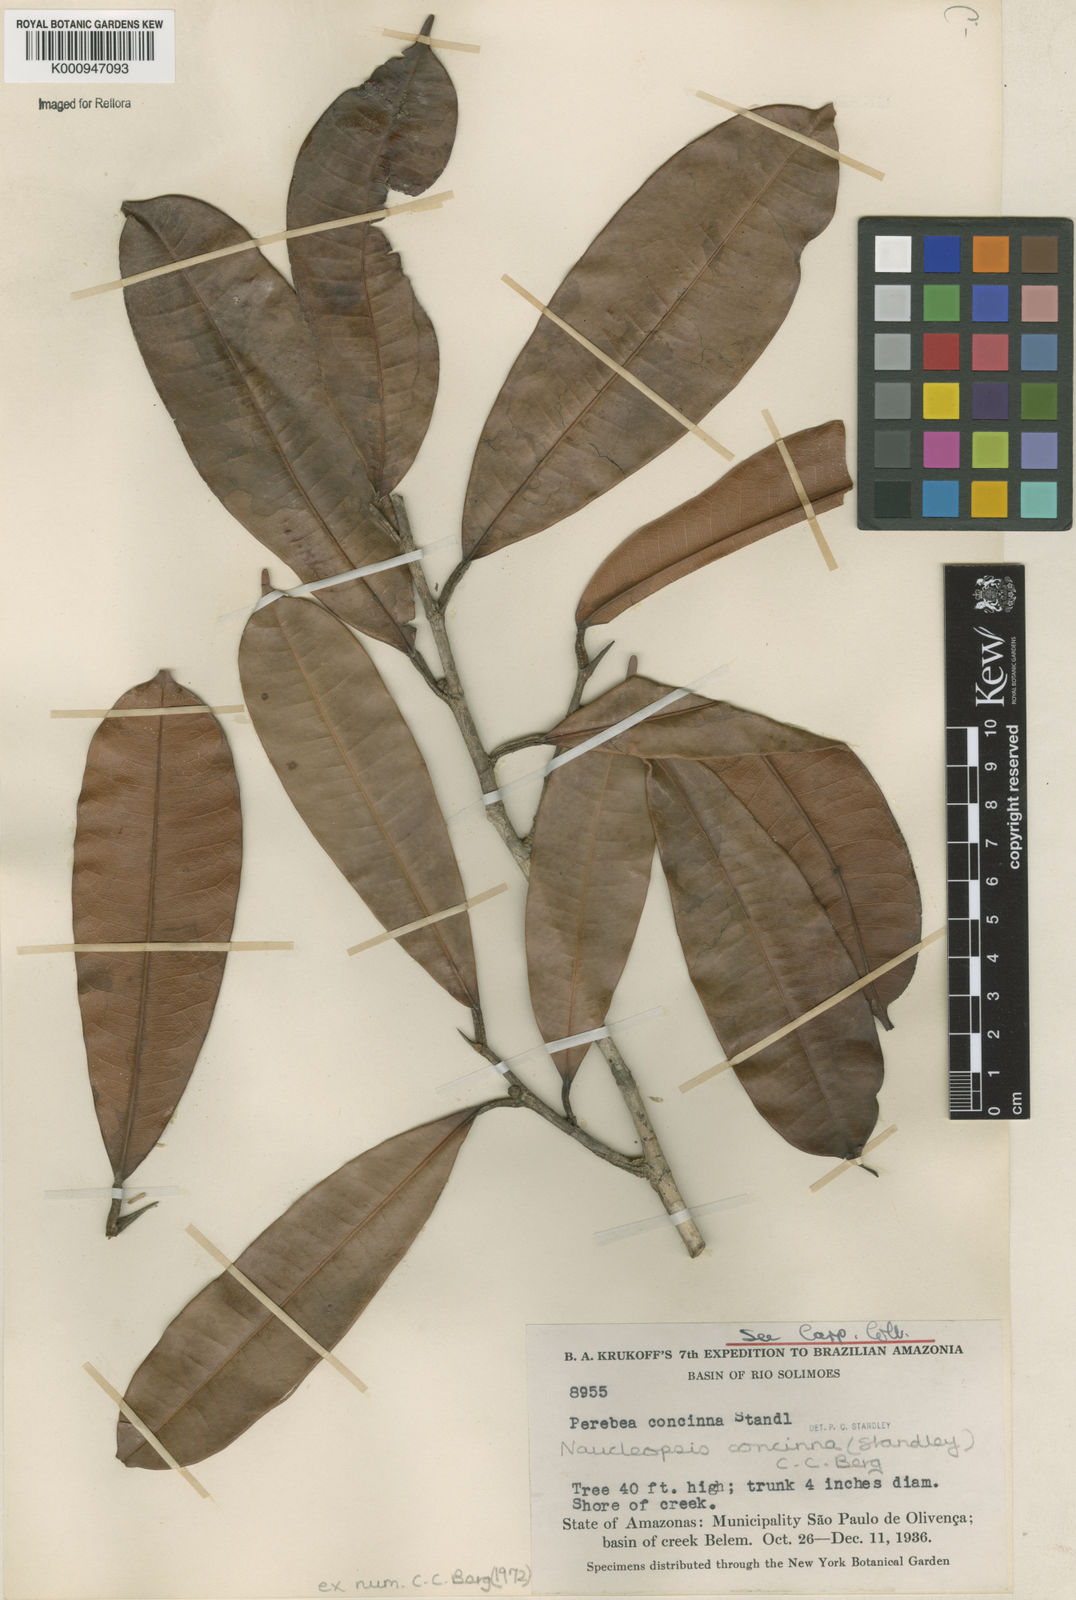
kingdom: Plantae
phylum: Tracheophyta
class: Magnoliopsida
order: Rosales
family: Moraceae
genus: Naucleopsis
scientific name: Naucleopsis concinna
